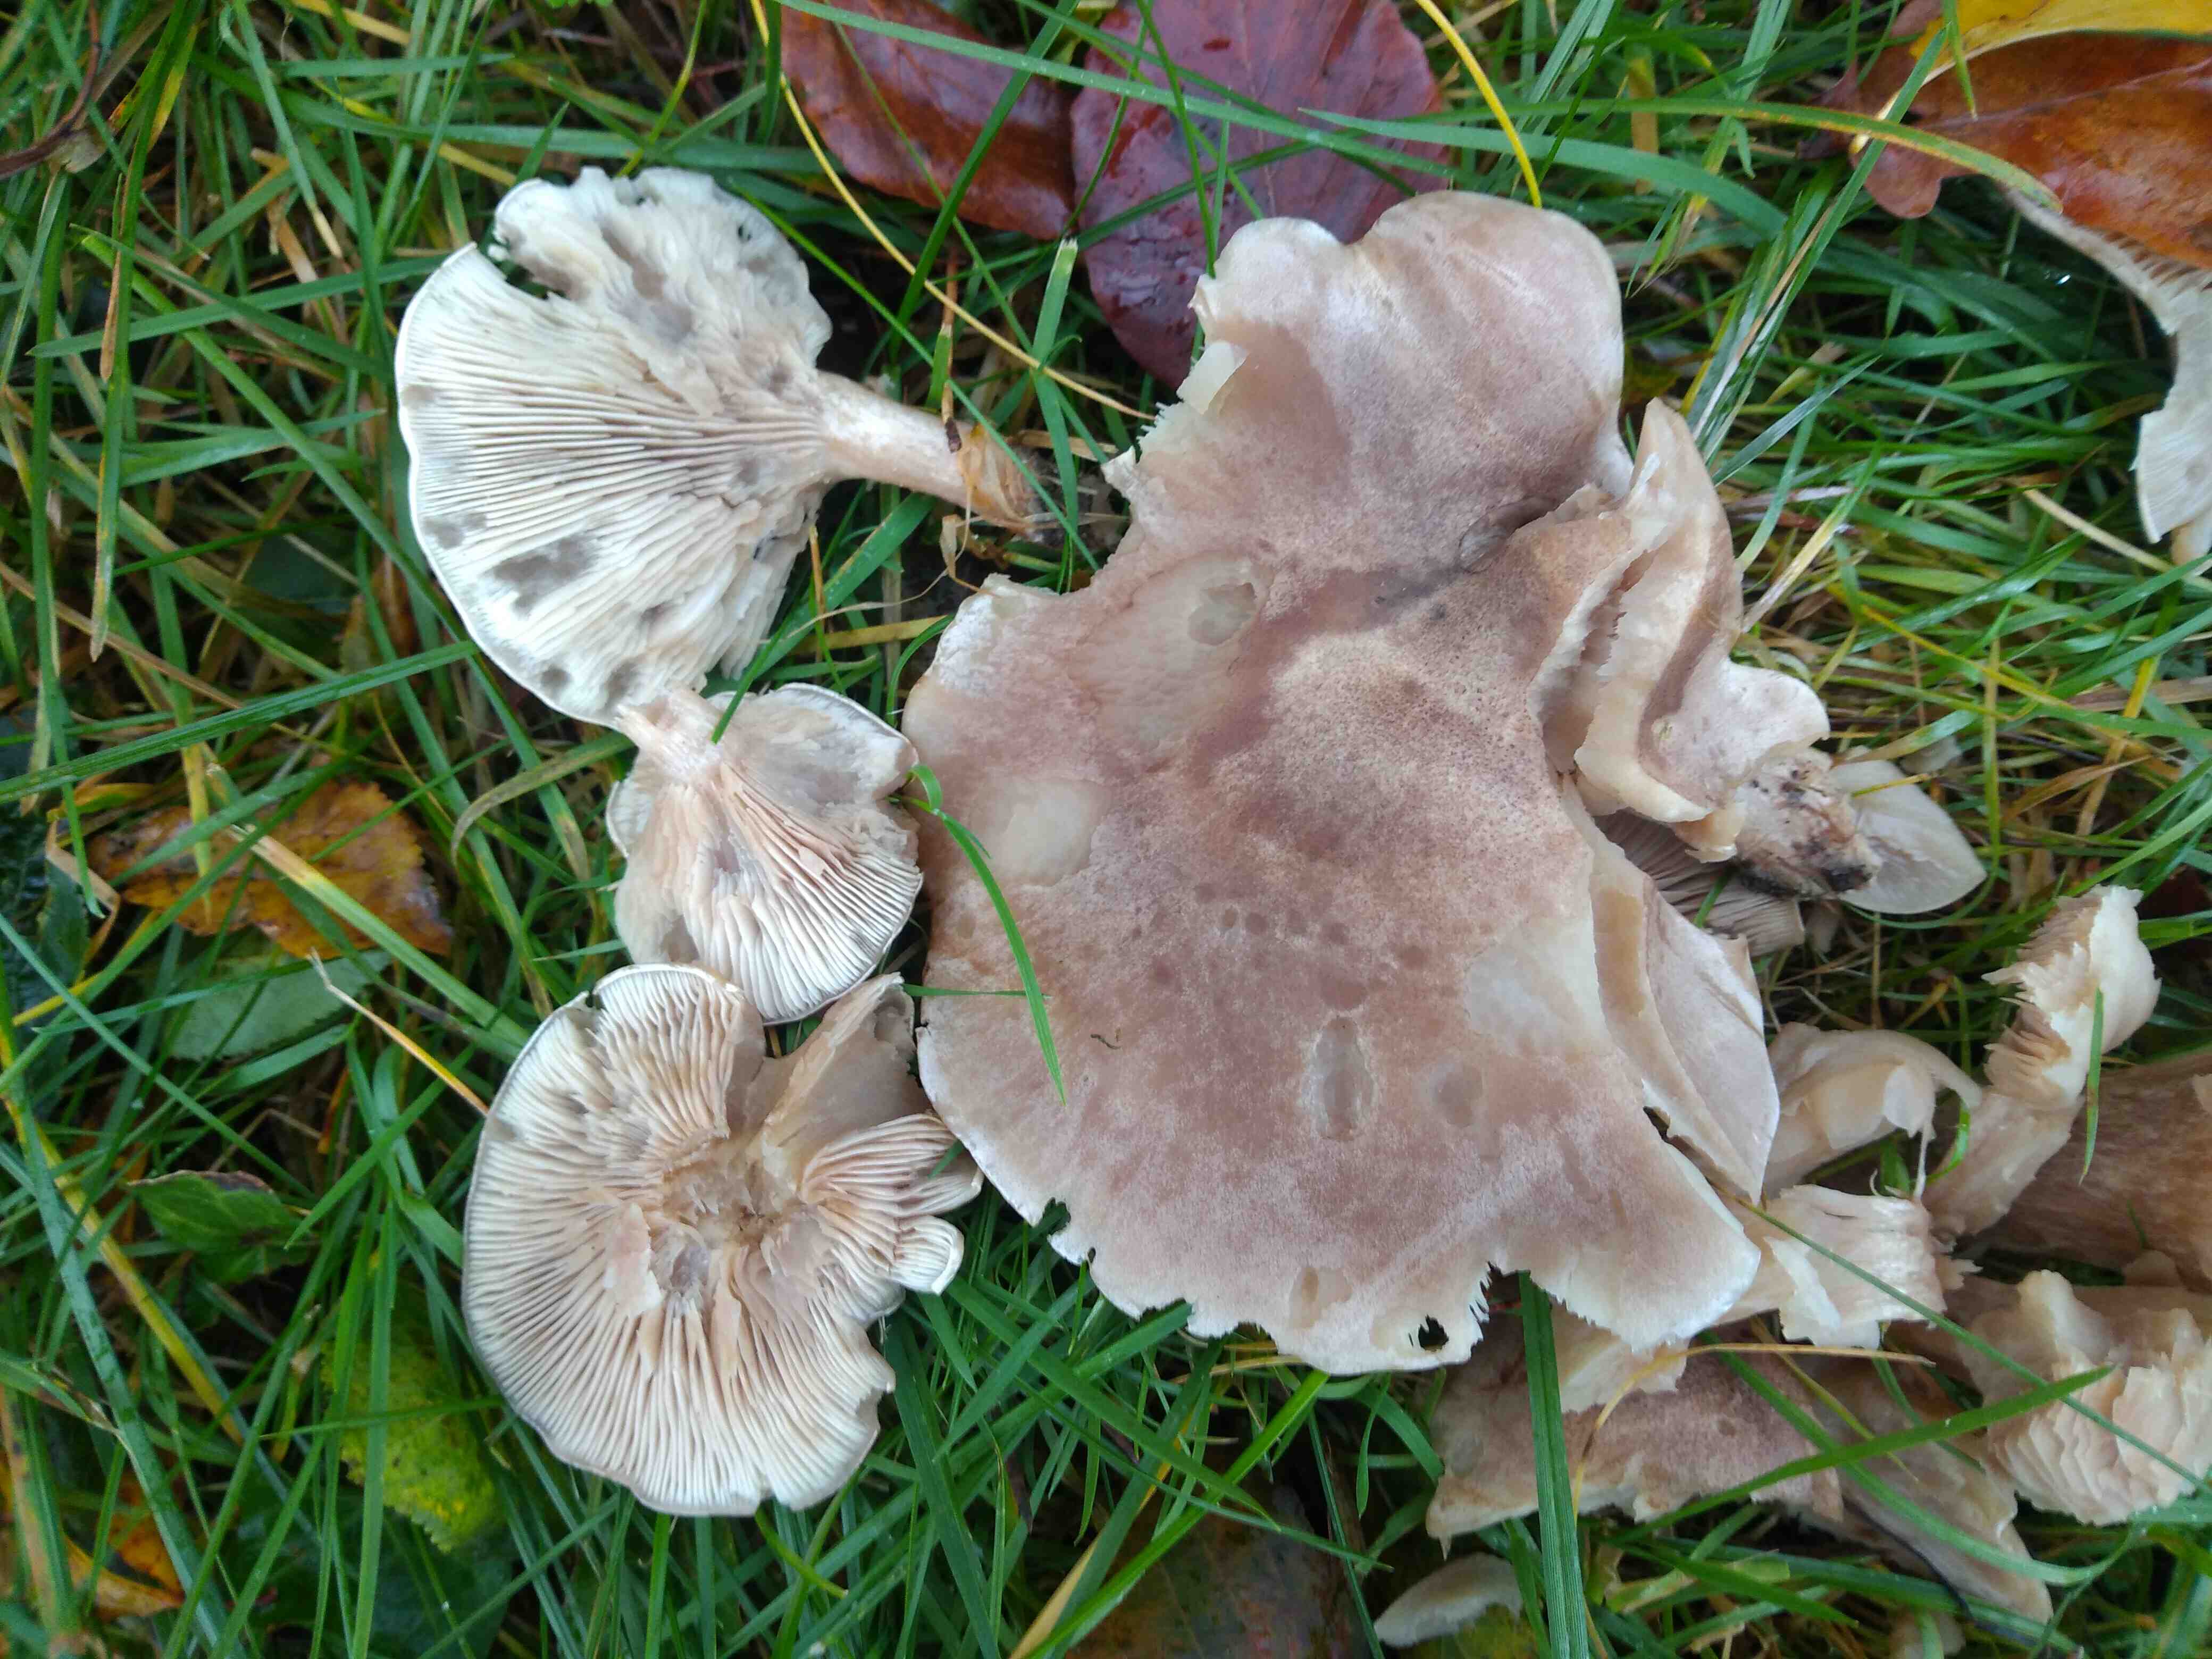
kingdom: Fungi
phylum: Basidiomycota
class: Agaricomycetes
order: Agaricales
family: Tricholomataceae
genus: Lepista
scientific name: Lepista panaeolus
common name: marmoreret hekseringshat
